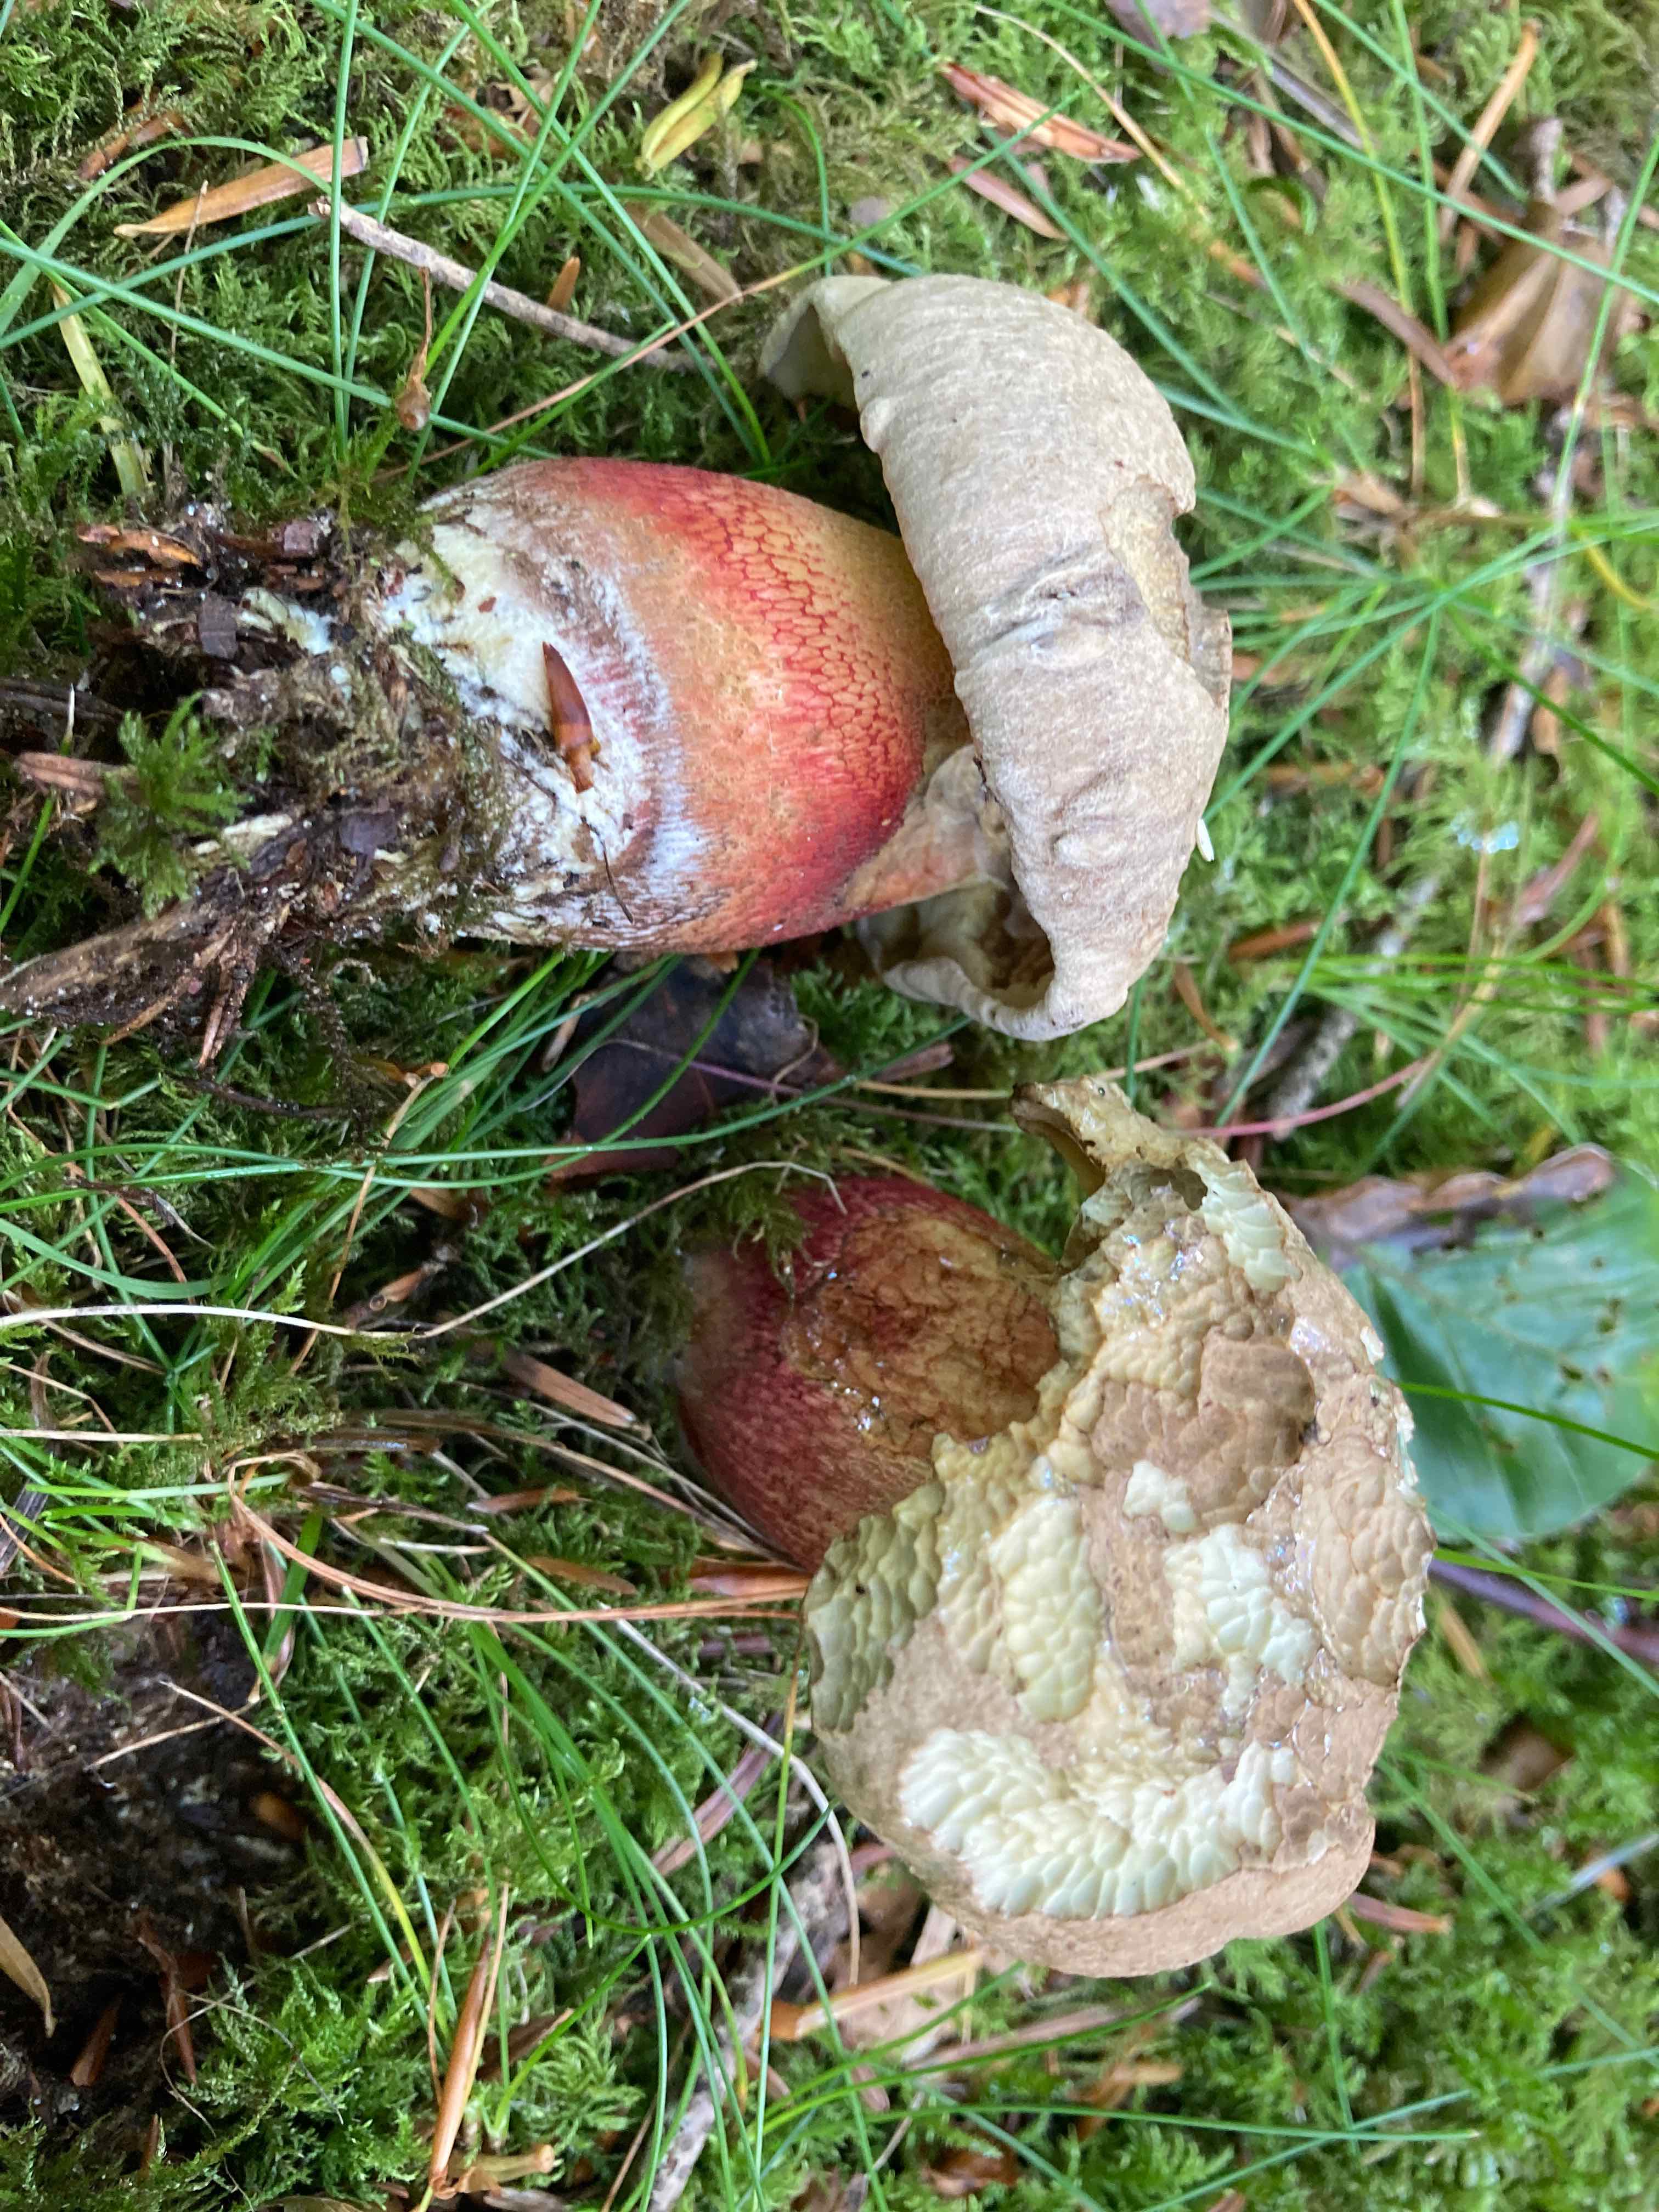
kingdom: Fungi
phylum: Basidiomycota
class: Agaricomycetes
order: Boletales
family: Boletaceae
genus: Caloboletus
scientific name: Caloboletus calopus
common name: skønfodet rørhat
